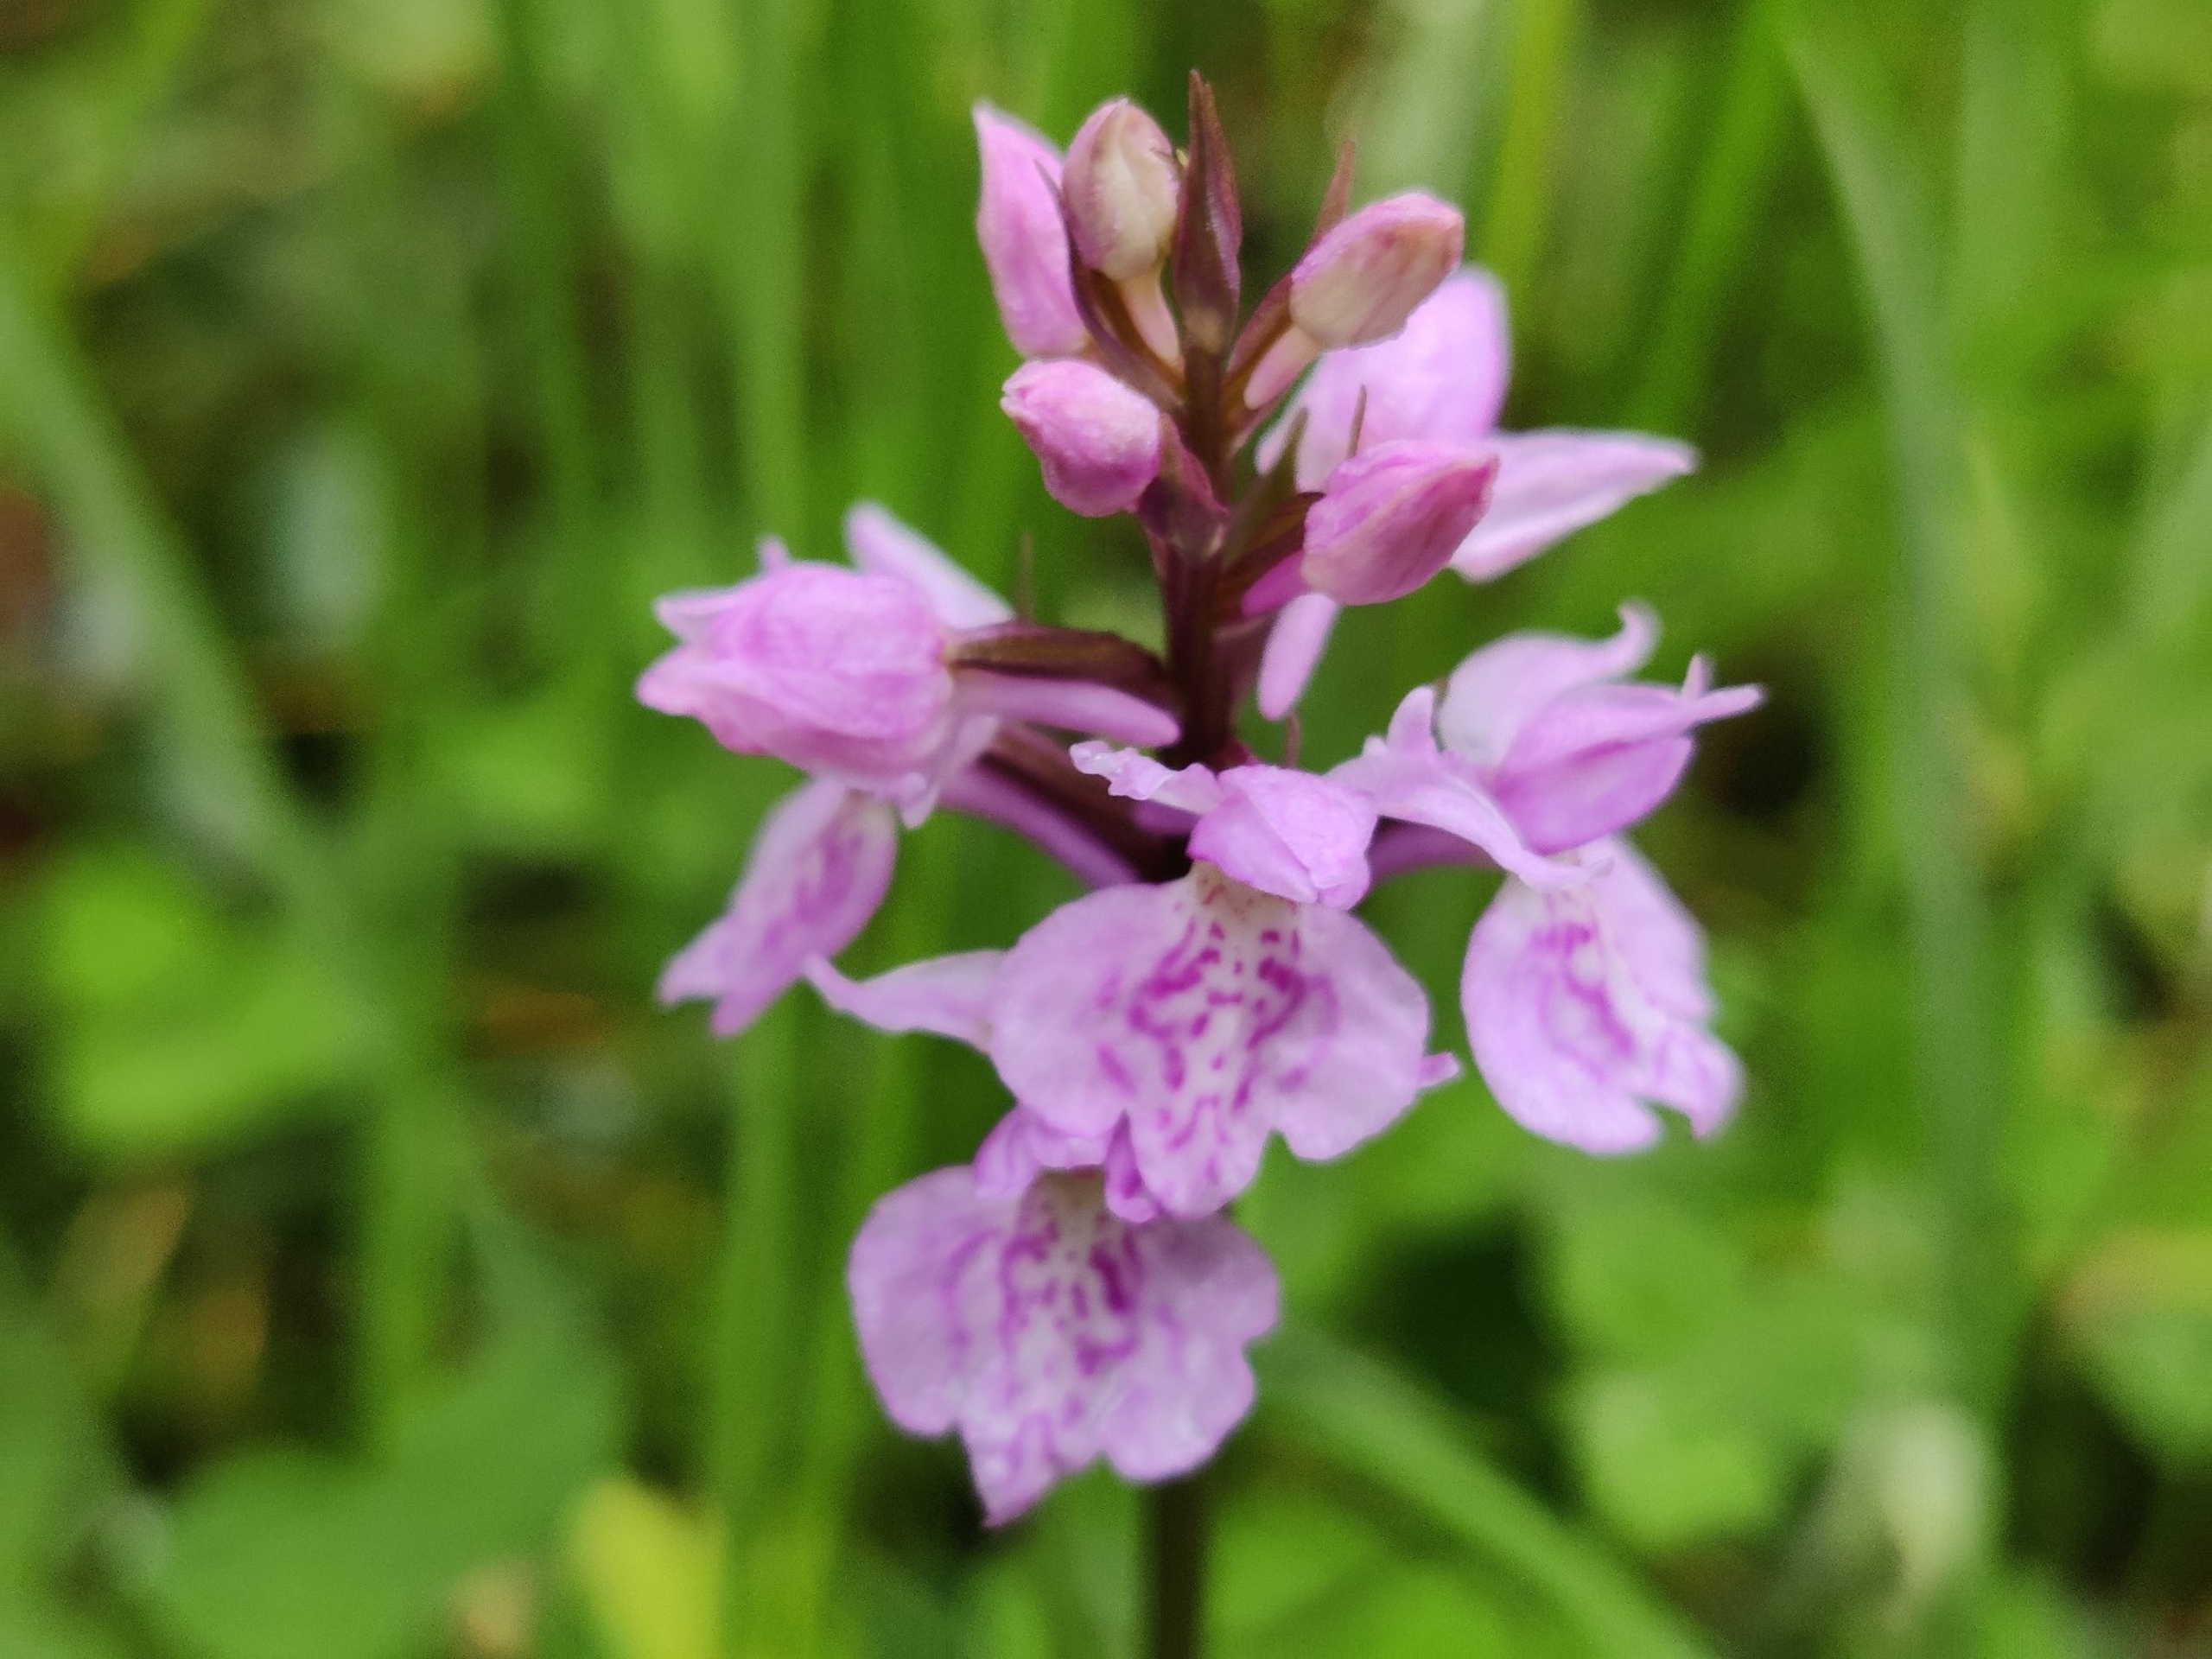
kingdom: Plantae
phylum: Tracheophyta
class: Liliopsida
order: Asparagales
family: Orchidaceae
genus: Dactylorhiza
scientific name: Dactylorhiza maculata
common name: Plettet gøgeurt
